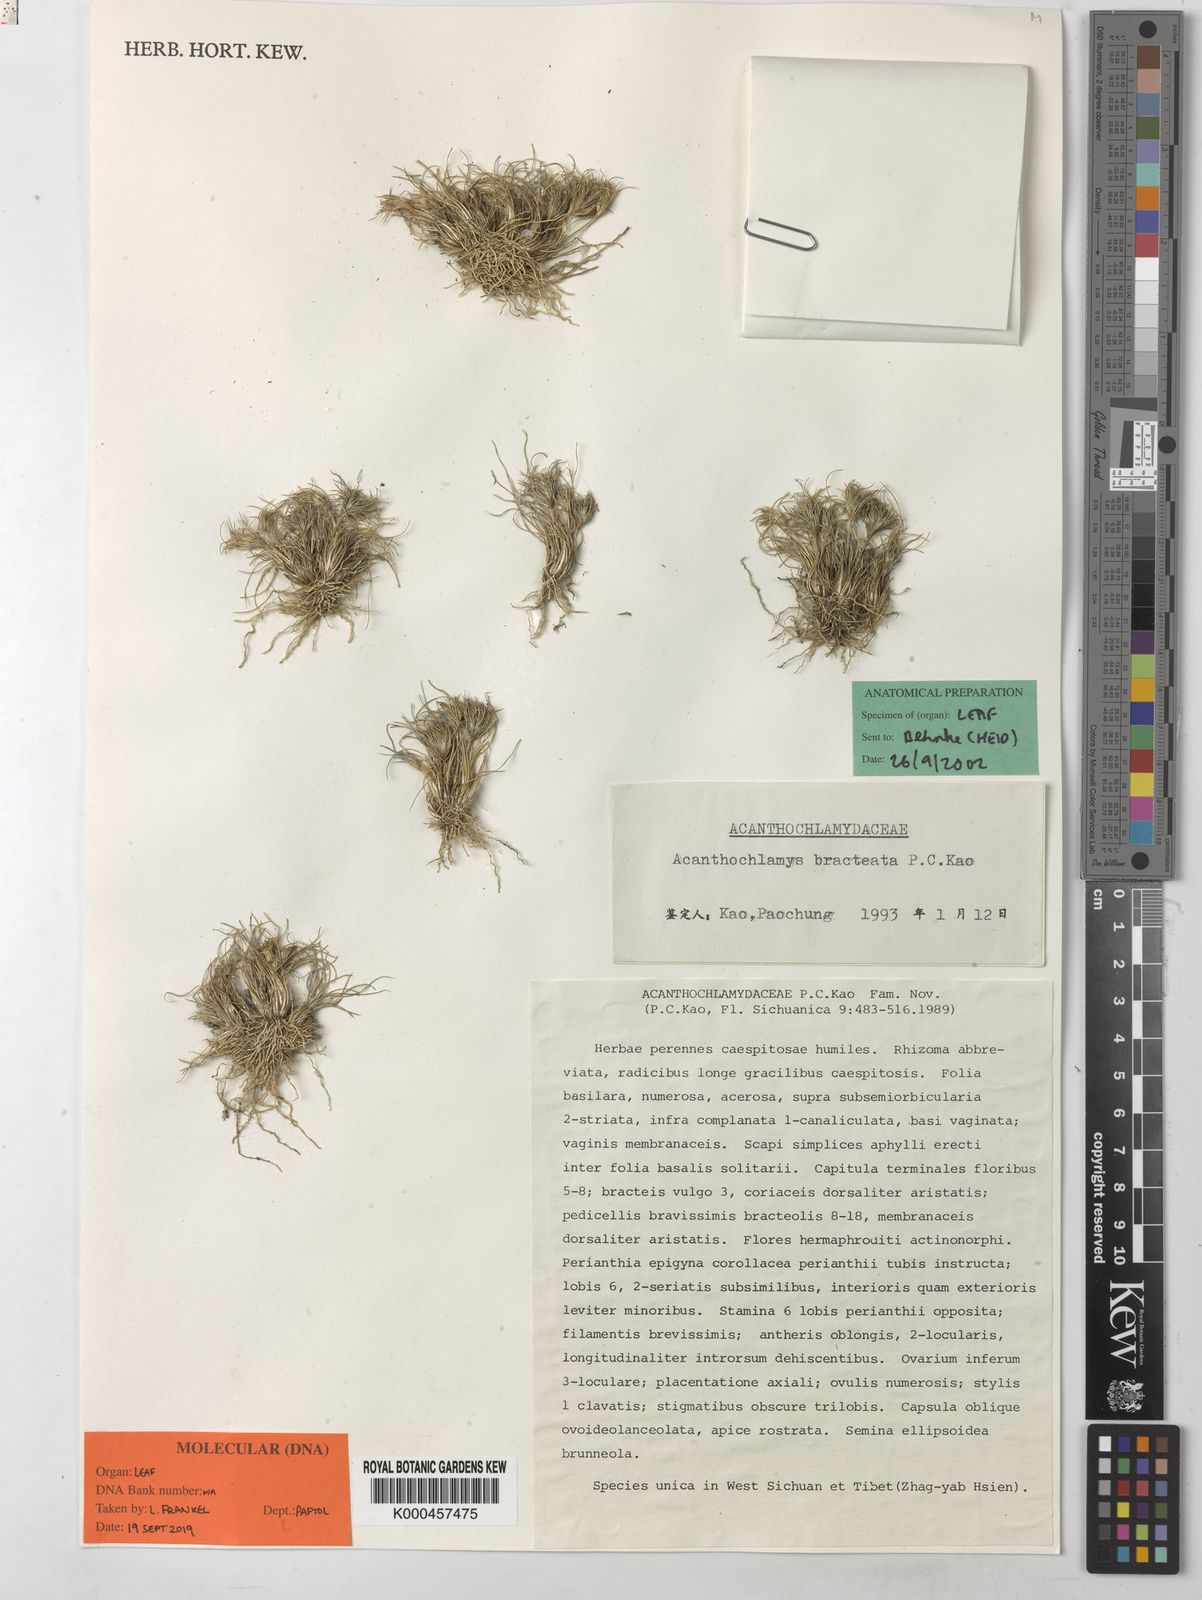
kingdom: Plantae
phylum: Tracheophyta
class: Liliopsida
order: Pandanales
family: Velloziaceae
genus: Acanthochlamys
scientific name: Acanthochlamys bracteata
